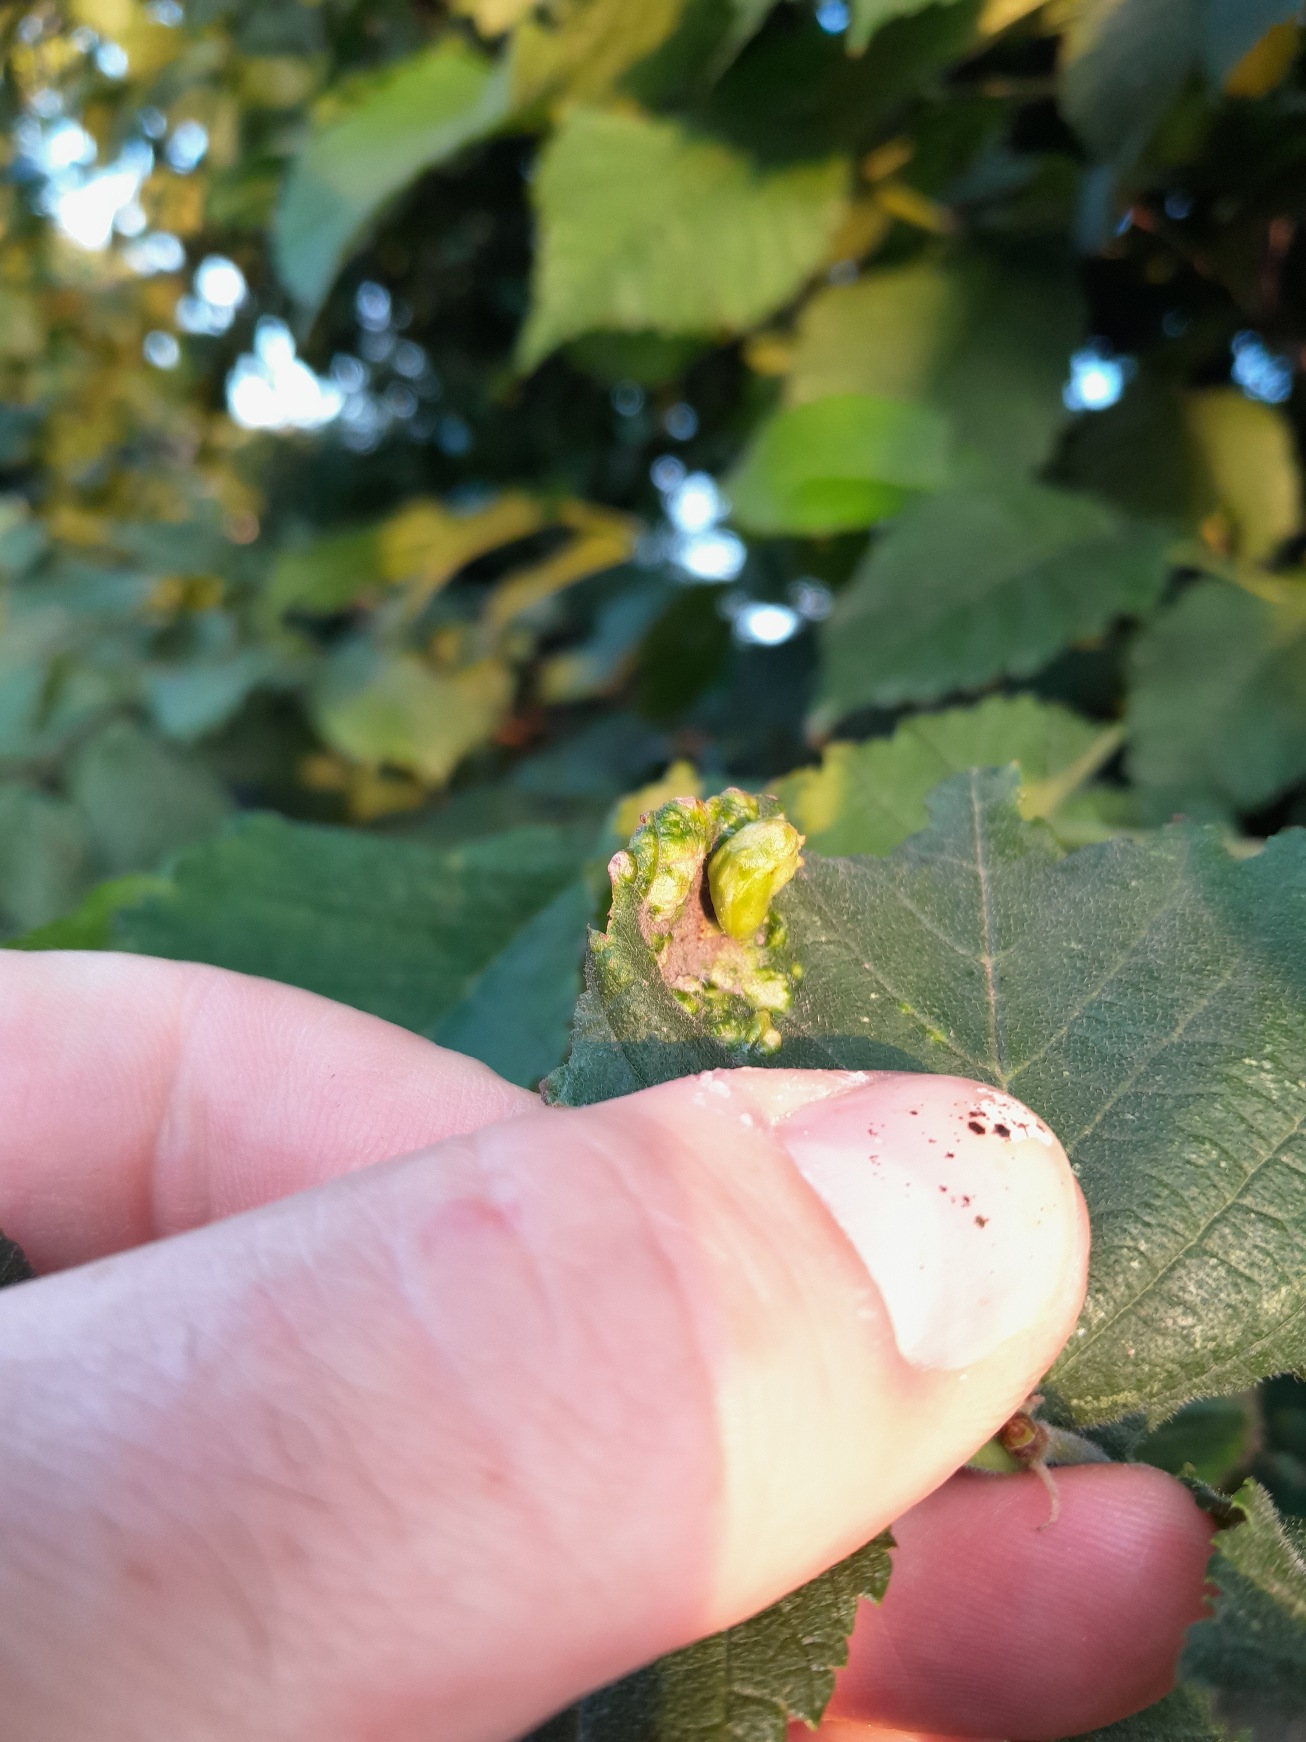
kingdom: Animalia
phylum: Arthropoda
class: Insecta
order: Hemiptera
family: Aphididae
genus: Tetraneura
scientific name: Tetraneura ulmi
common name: Elmegallelus
